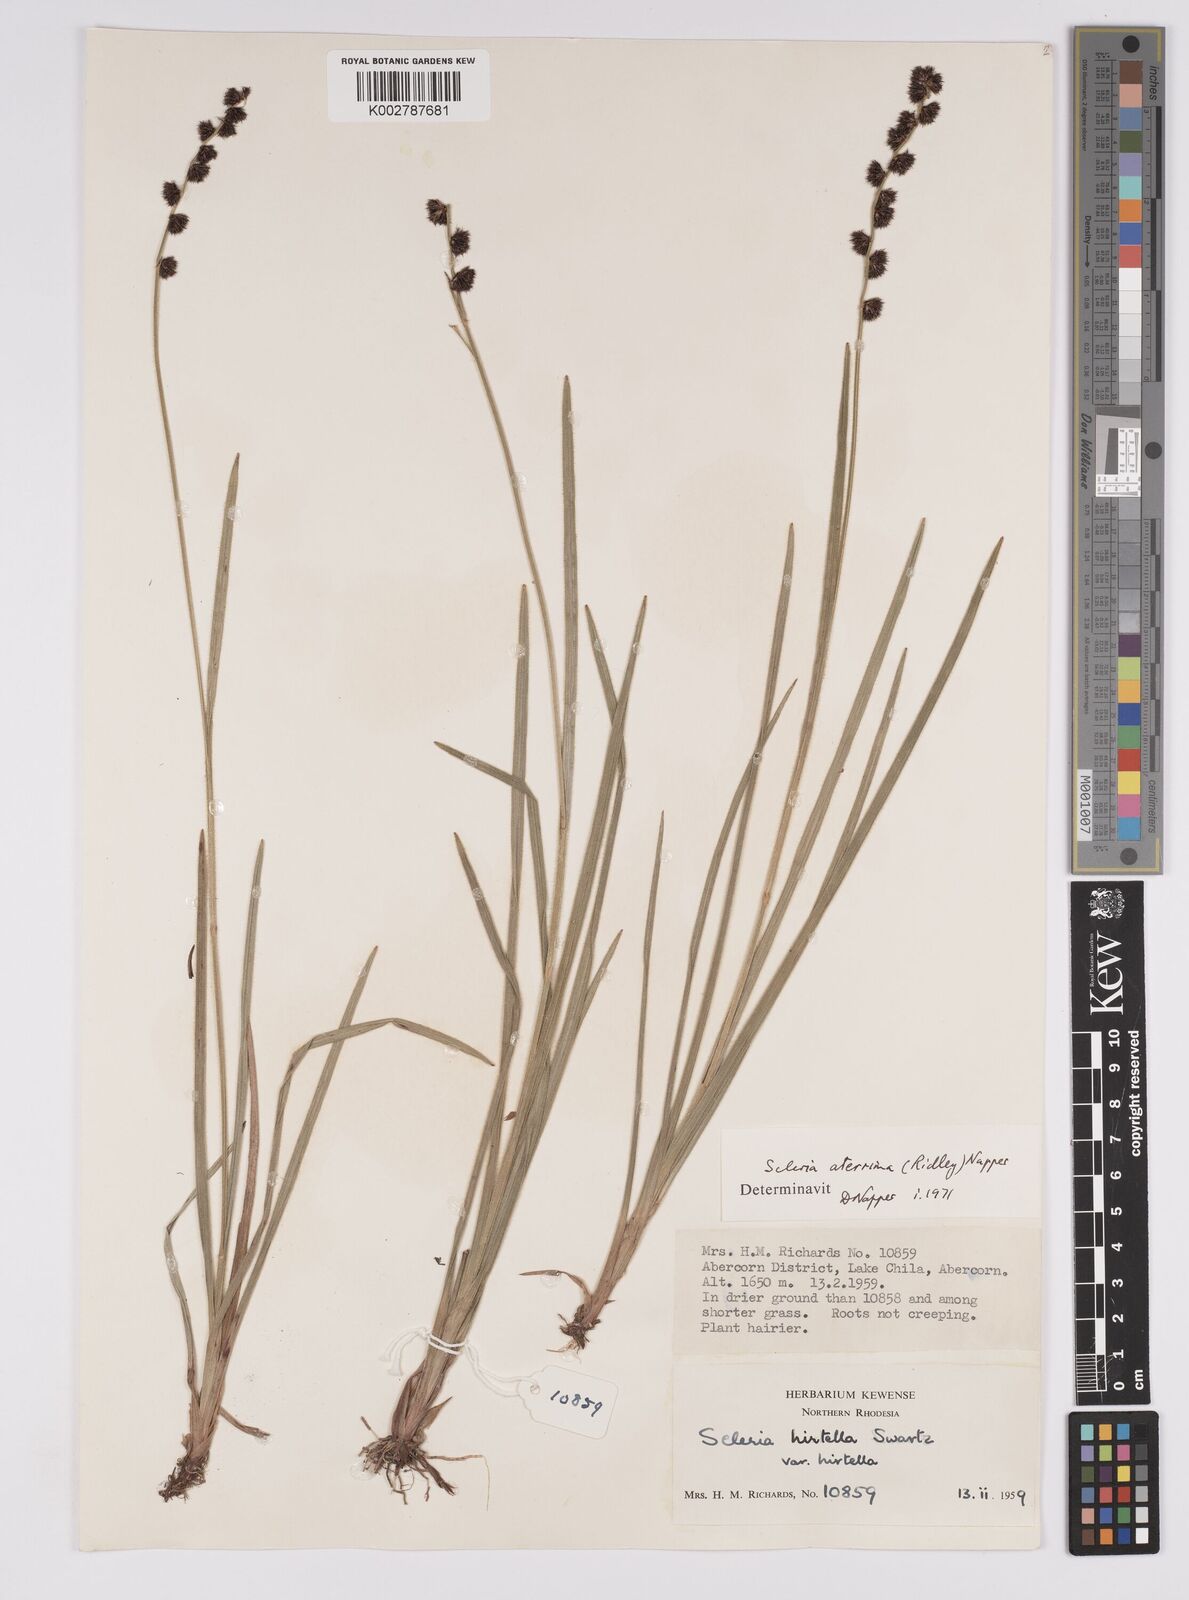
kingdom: Plantae
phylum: Tracheophyta
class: Liliopsida
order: Poales
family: Cyperaceae
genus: Scleria
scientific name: Scleria catophylla
